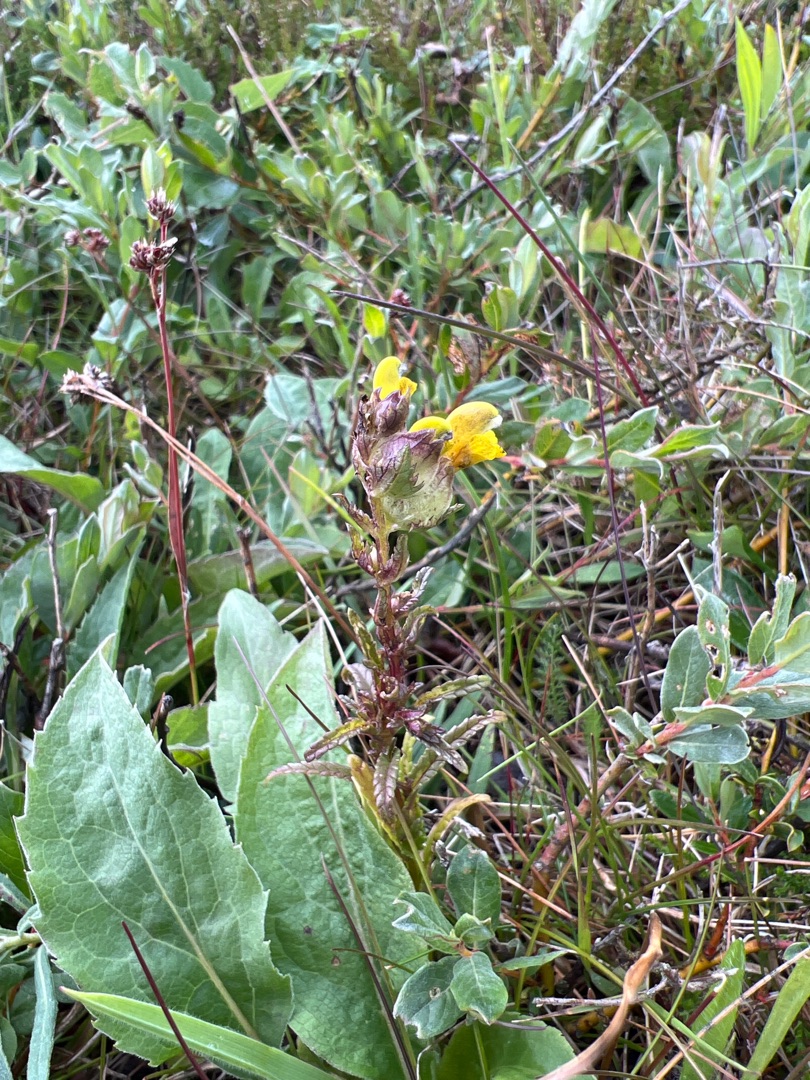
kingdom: Plantae
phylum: Tracheophyta
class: Magnoliopsida
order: Lamiales
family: Orobanchaceae
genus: Rhinanthus
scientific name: Rhinanthus minor
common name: Liden skjaller
